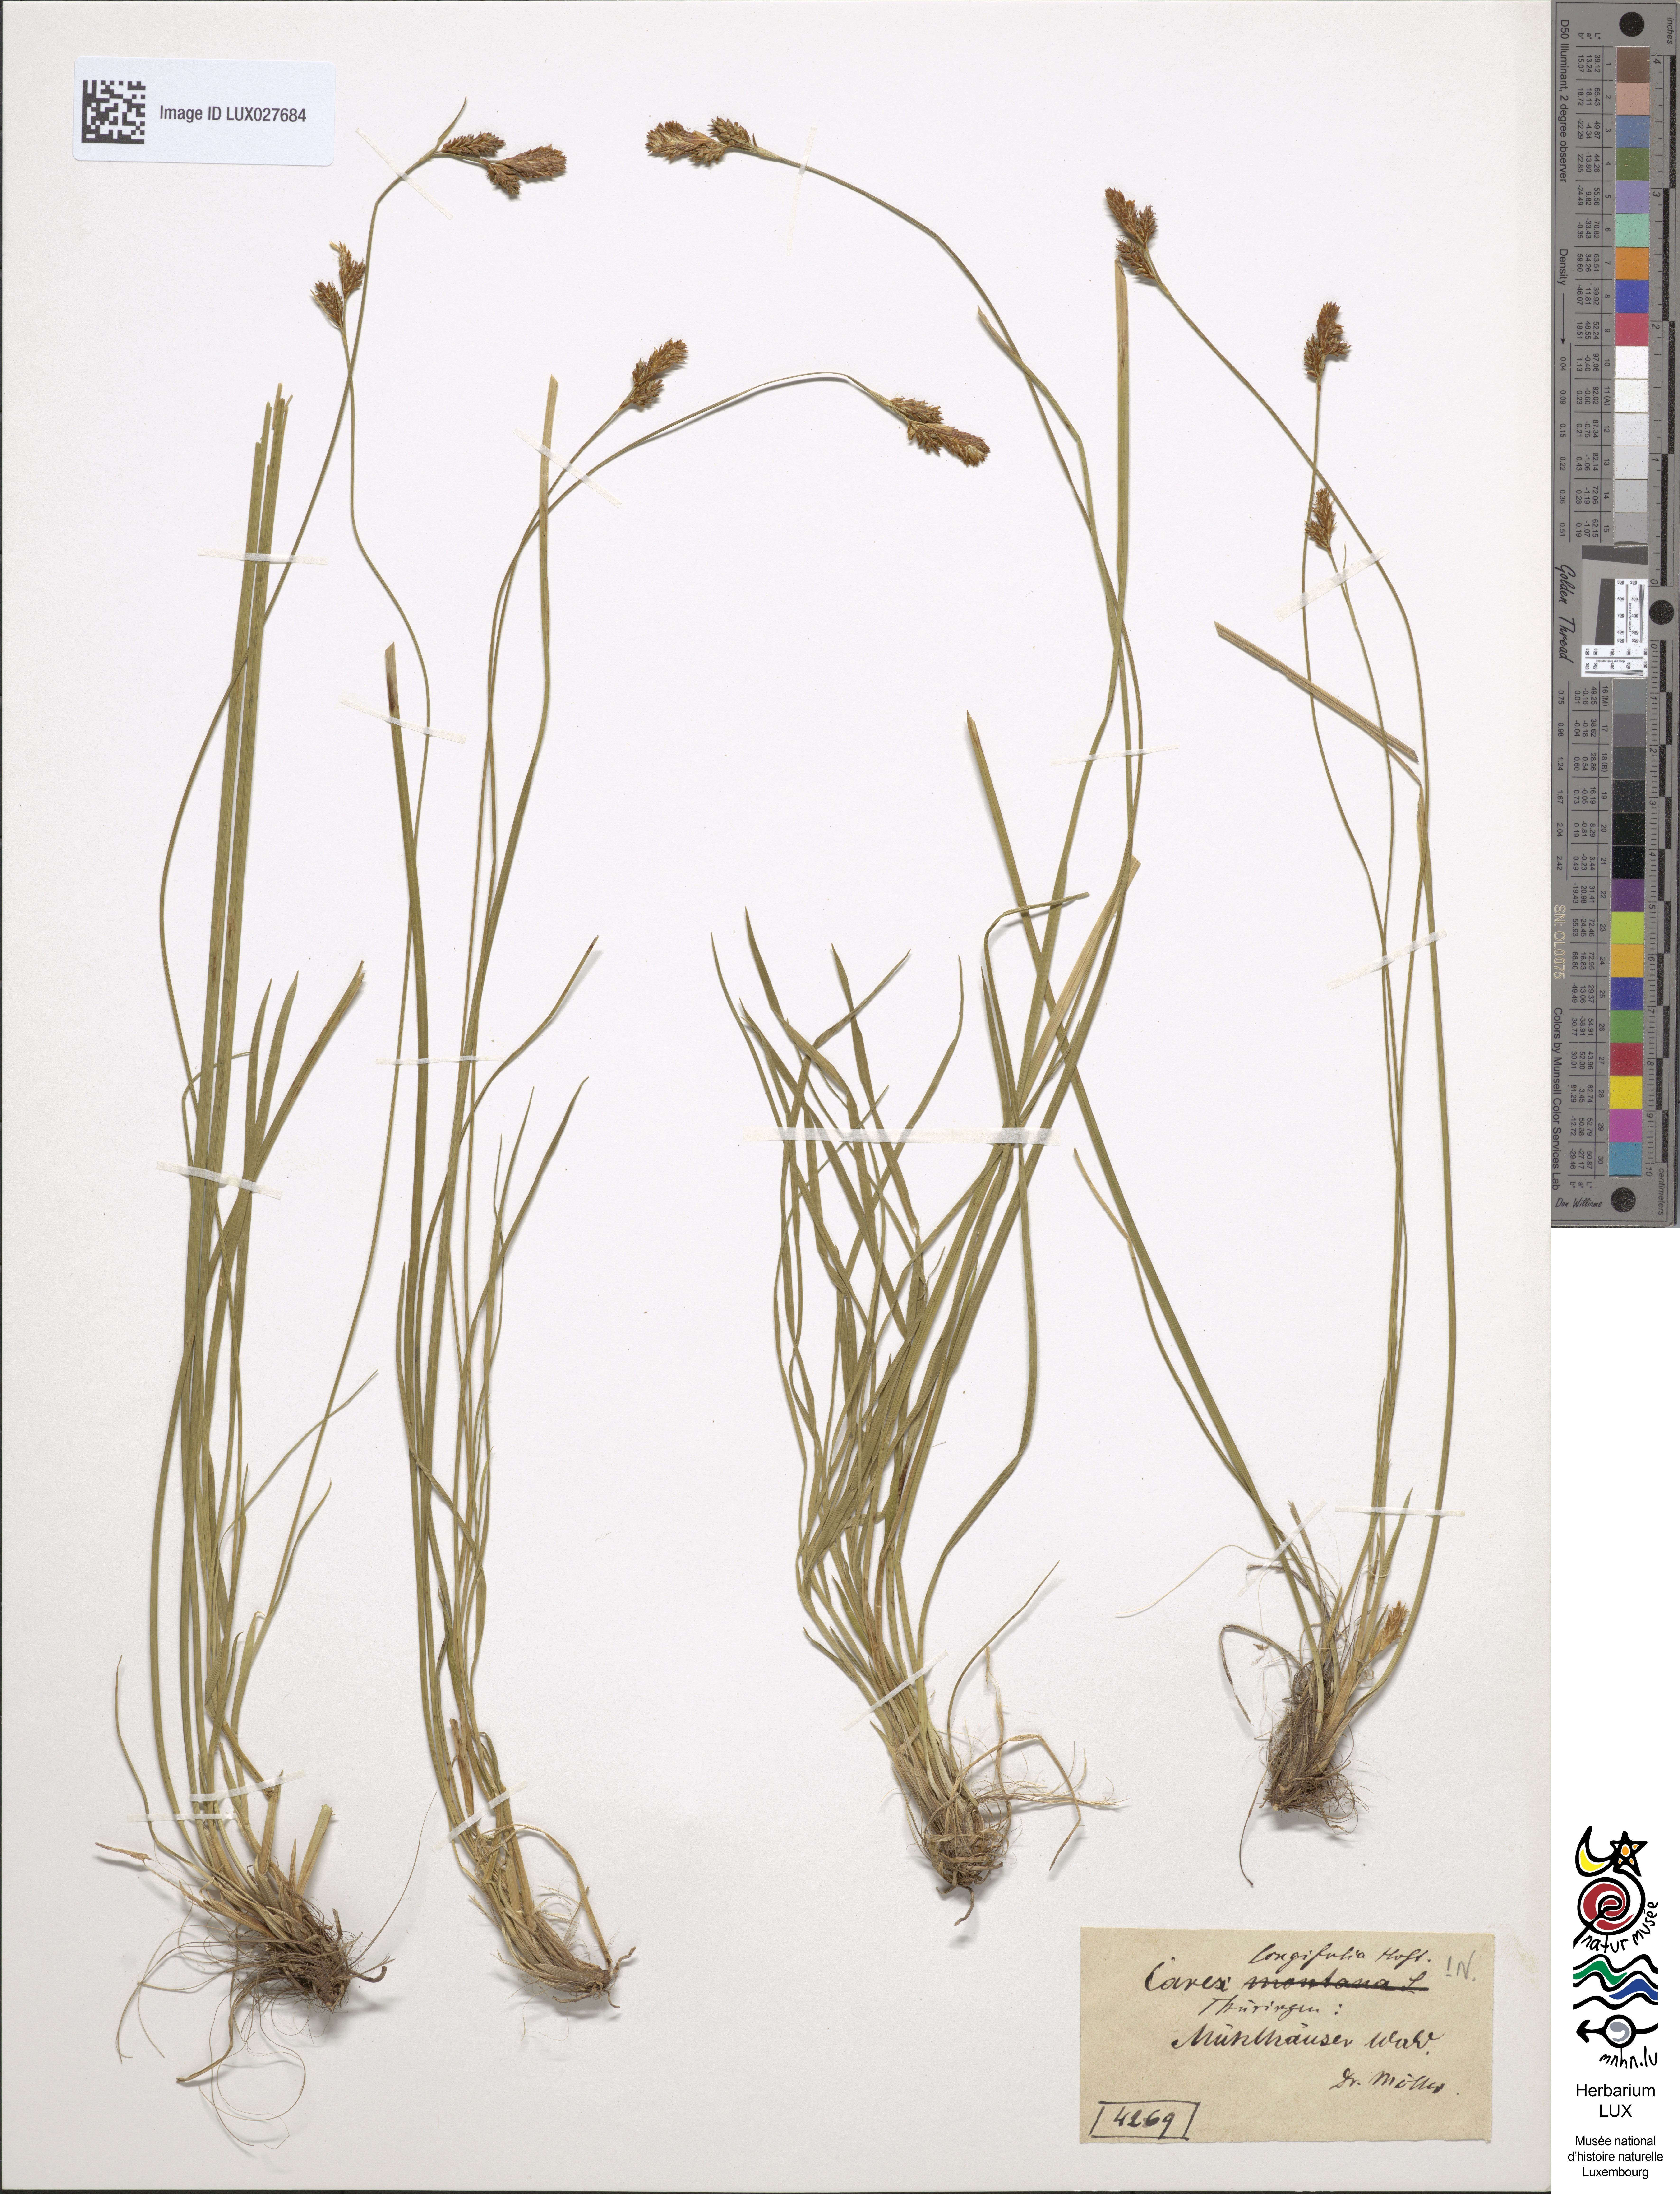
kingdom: Plantae
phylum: Tracheophyta
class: Liliopsida
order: Poales
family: Cyperaceae
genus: Carex
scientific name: Carex umbrosa
